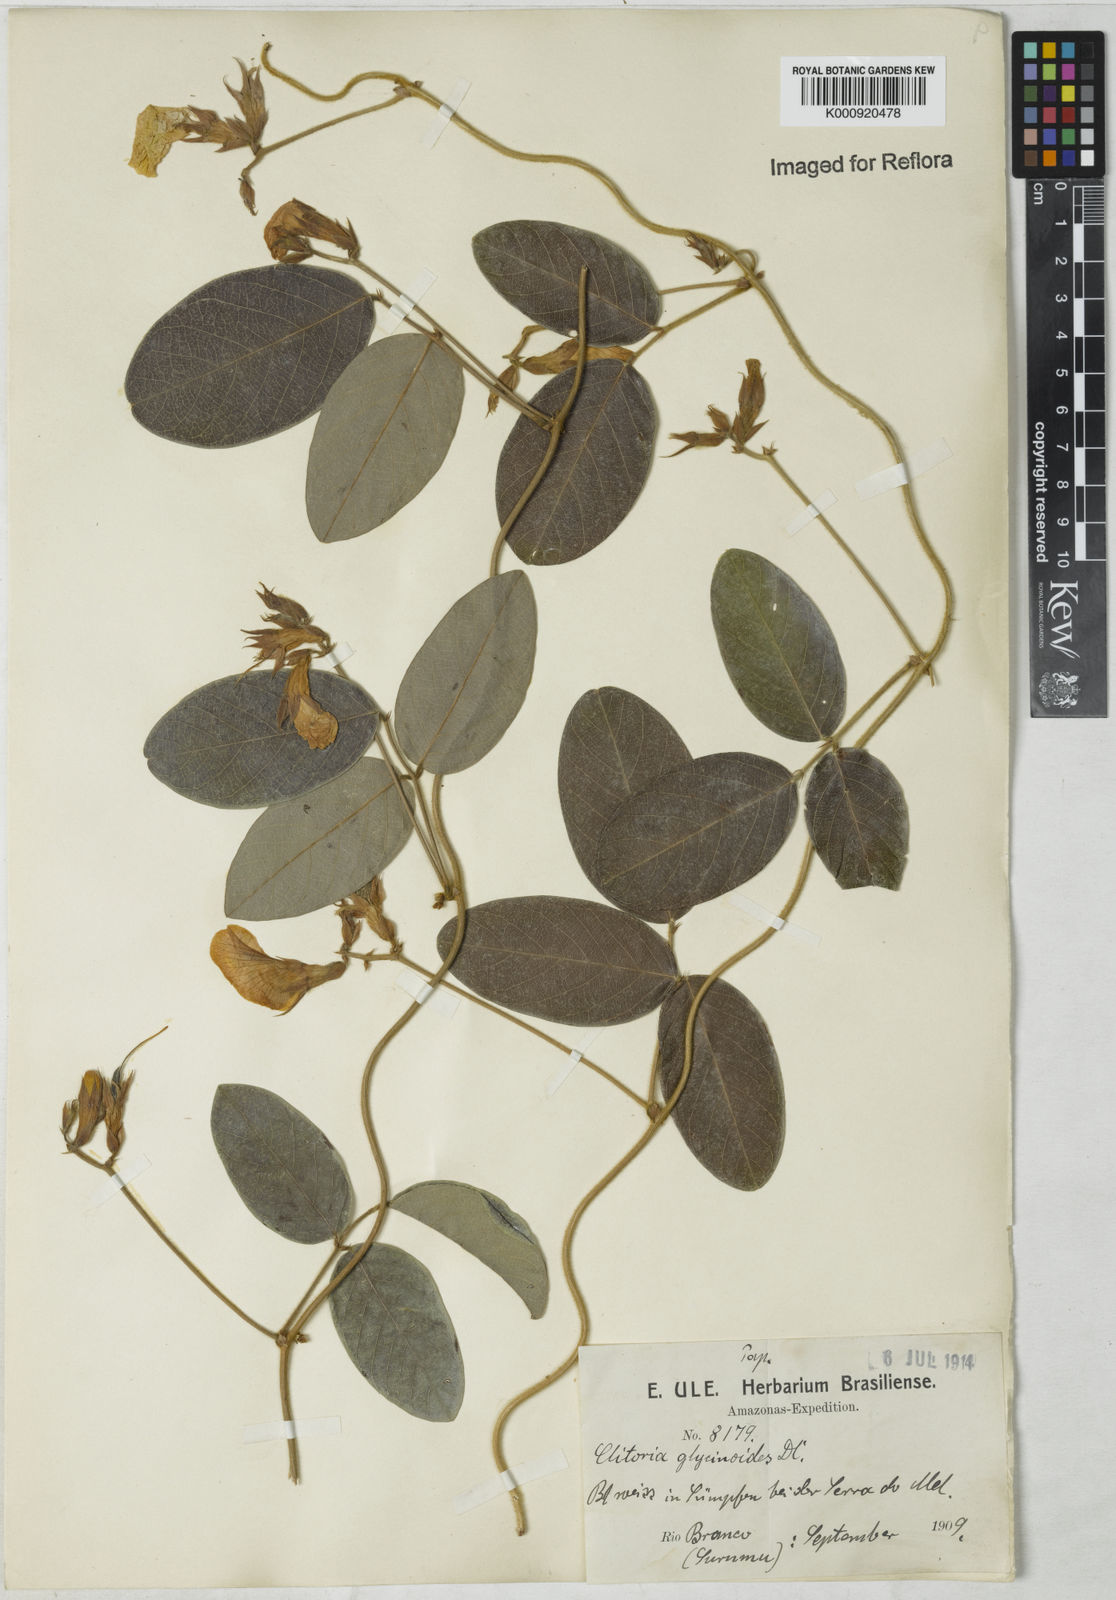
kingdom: Plantae
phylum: Tracheophyta
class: Magnoliopsida
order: Fabales
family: Fabaceae
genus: Clitoria
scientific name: Clitoria
